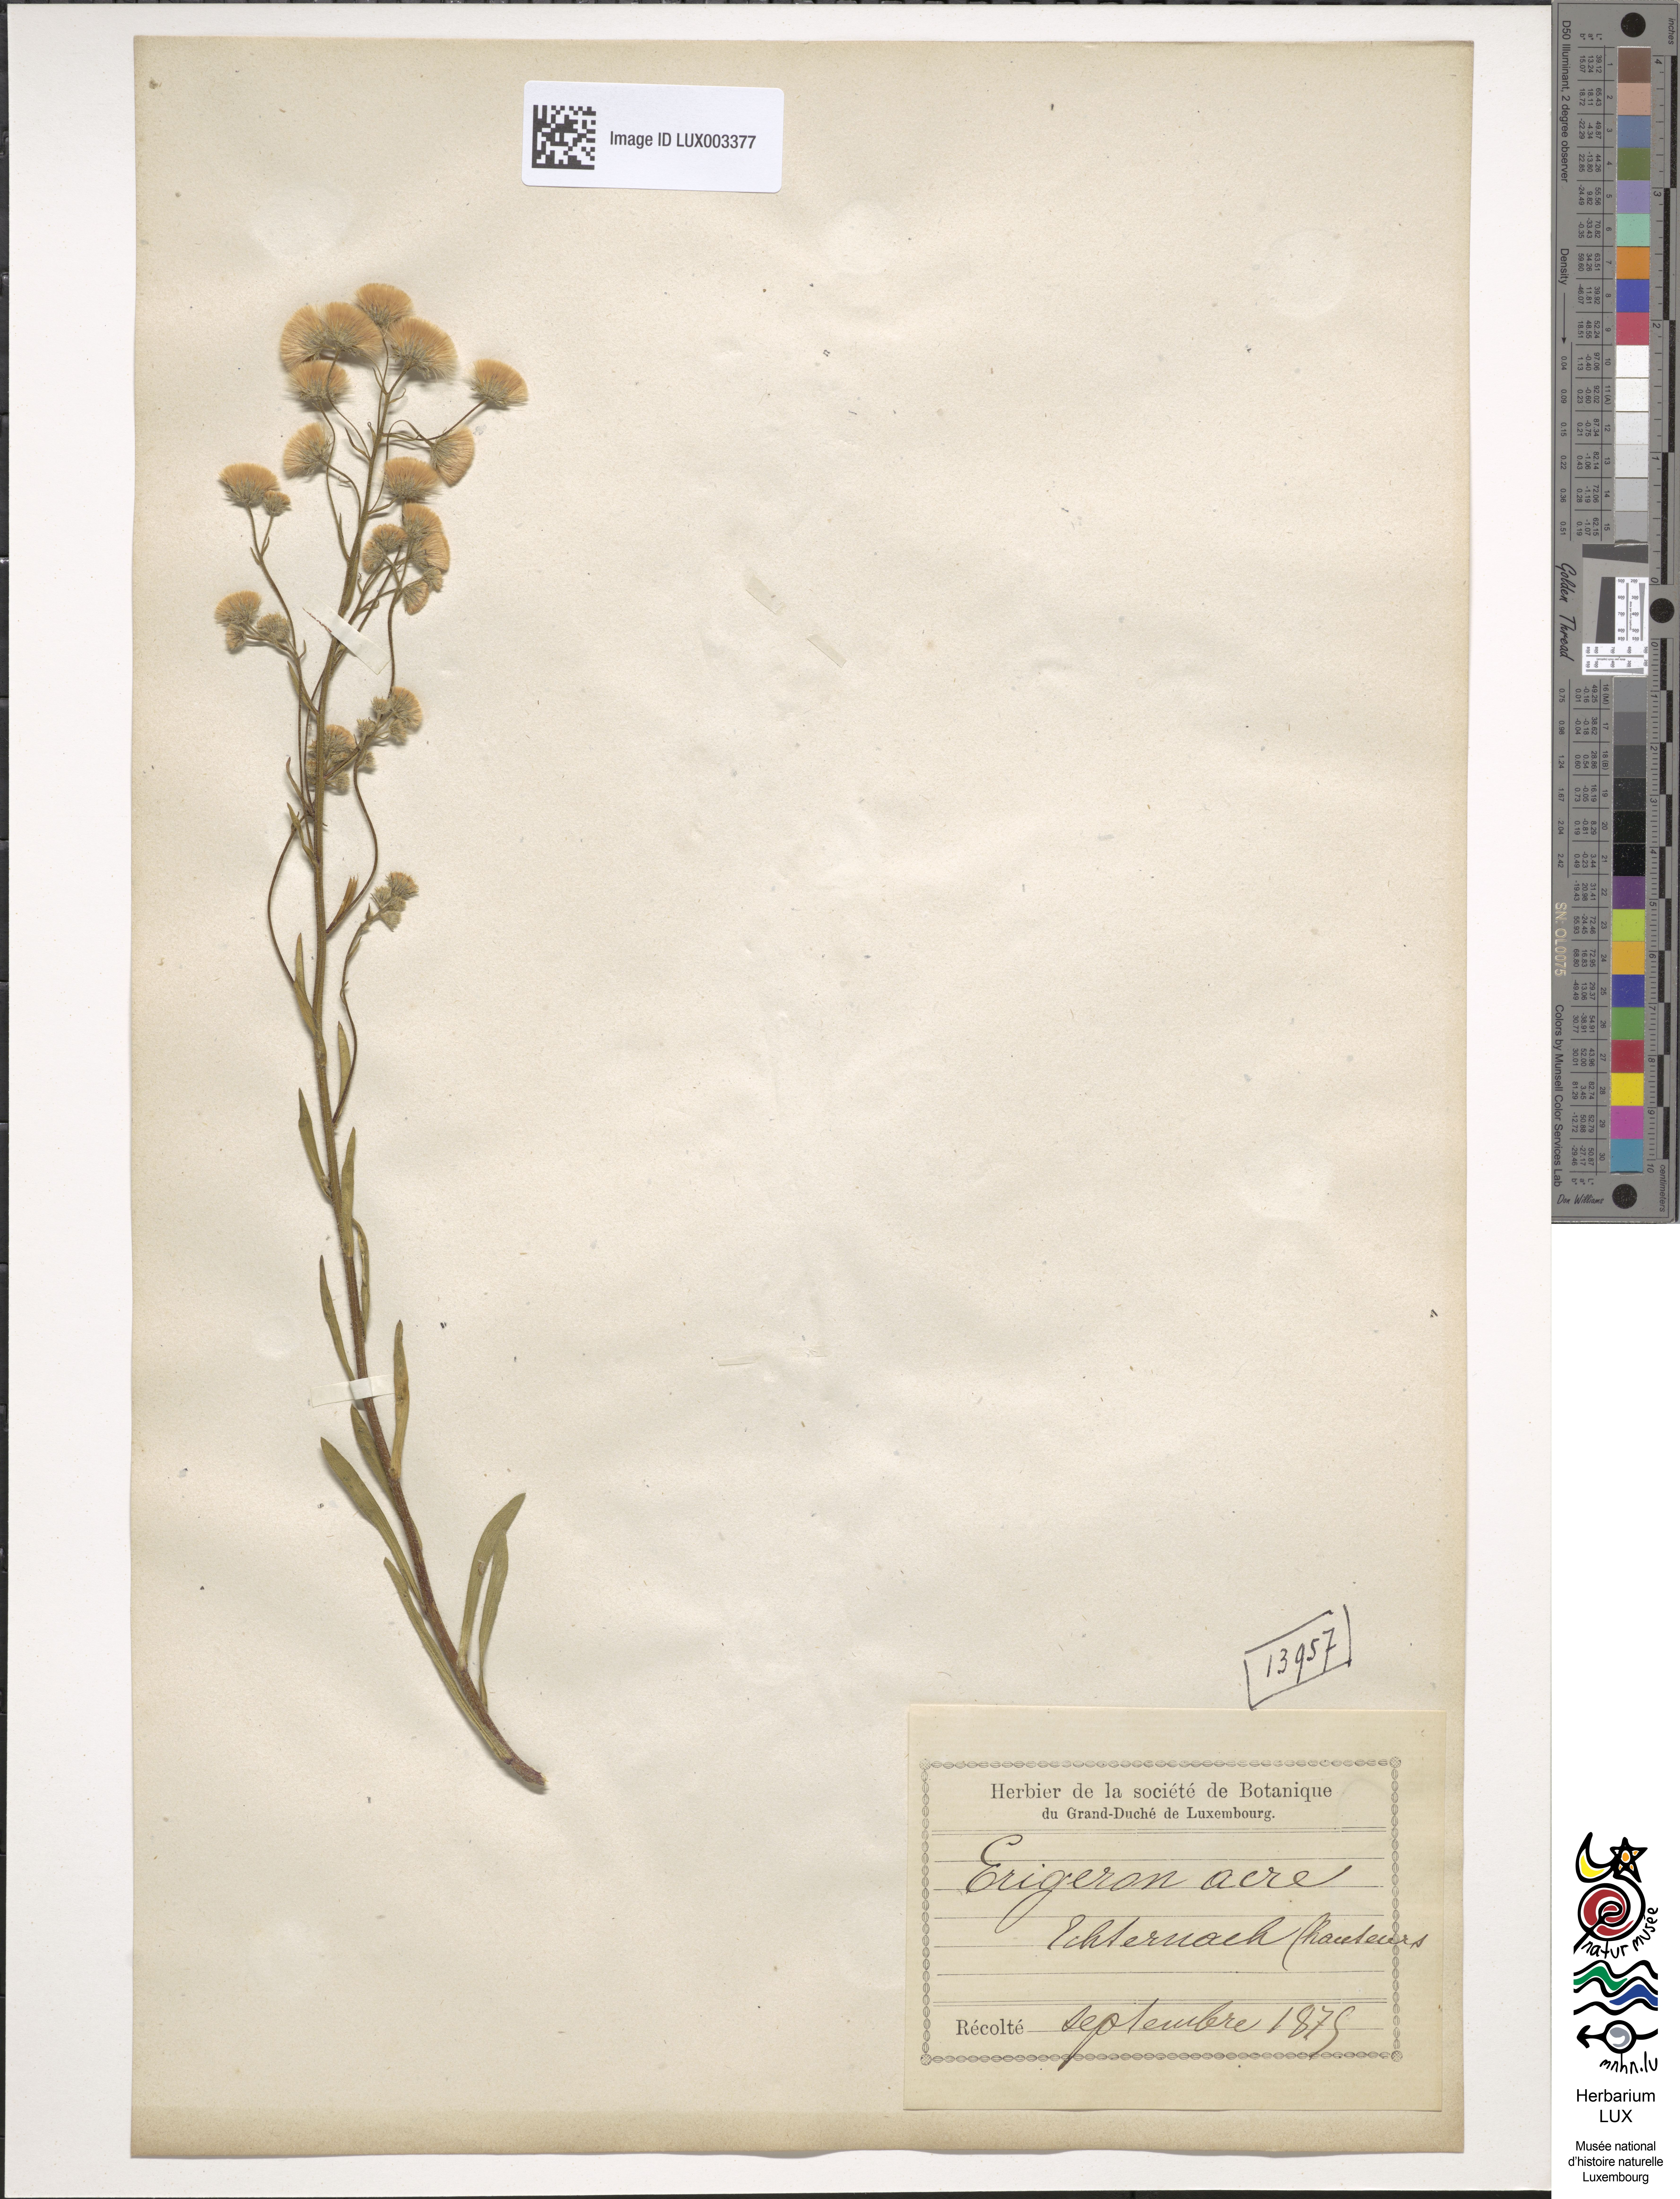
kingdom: Plantae
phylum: Tracheophyta
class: Magnoliopsida
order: Asterales
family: Asteraceae
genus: Erigeron
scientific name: Erigeron acer
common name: Blue fleabane
